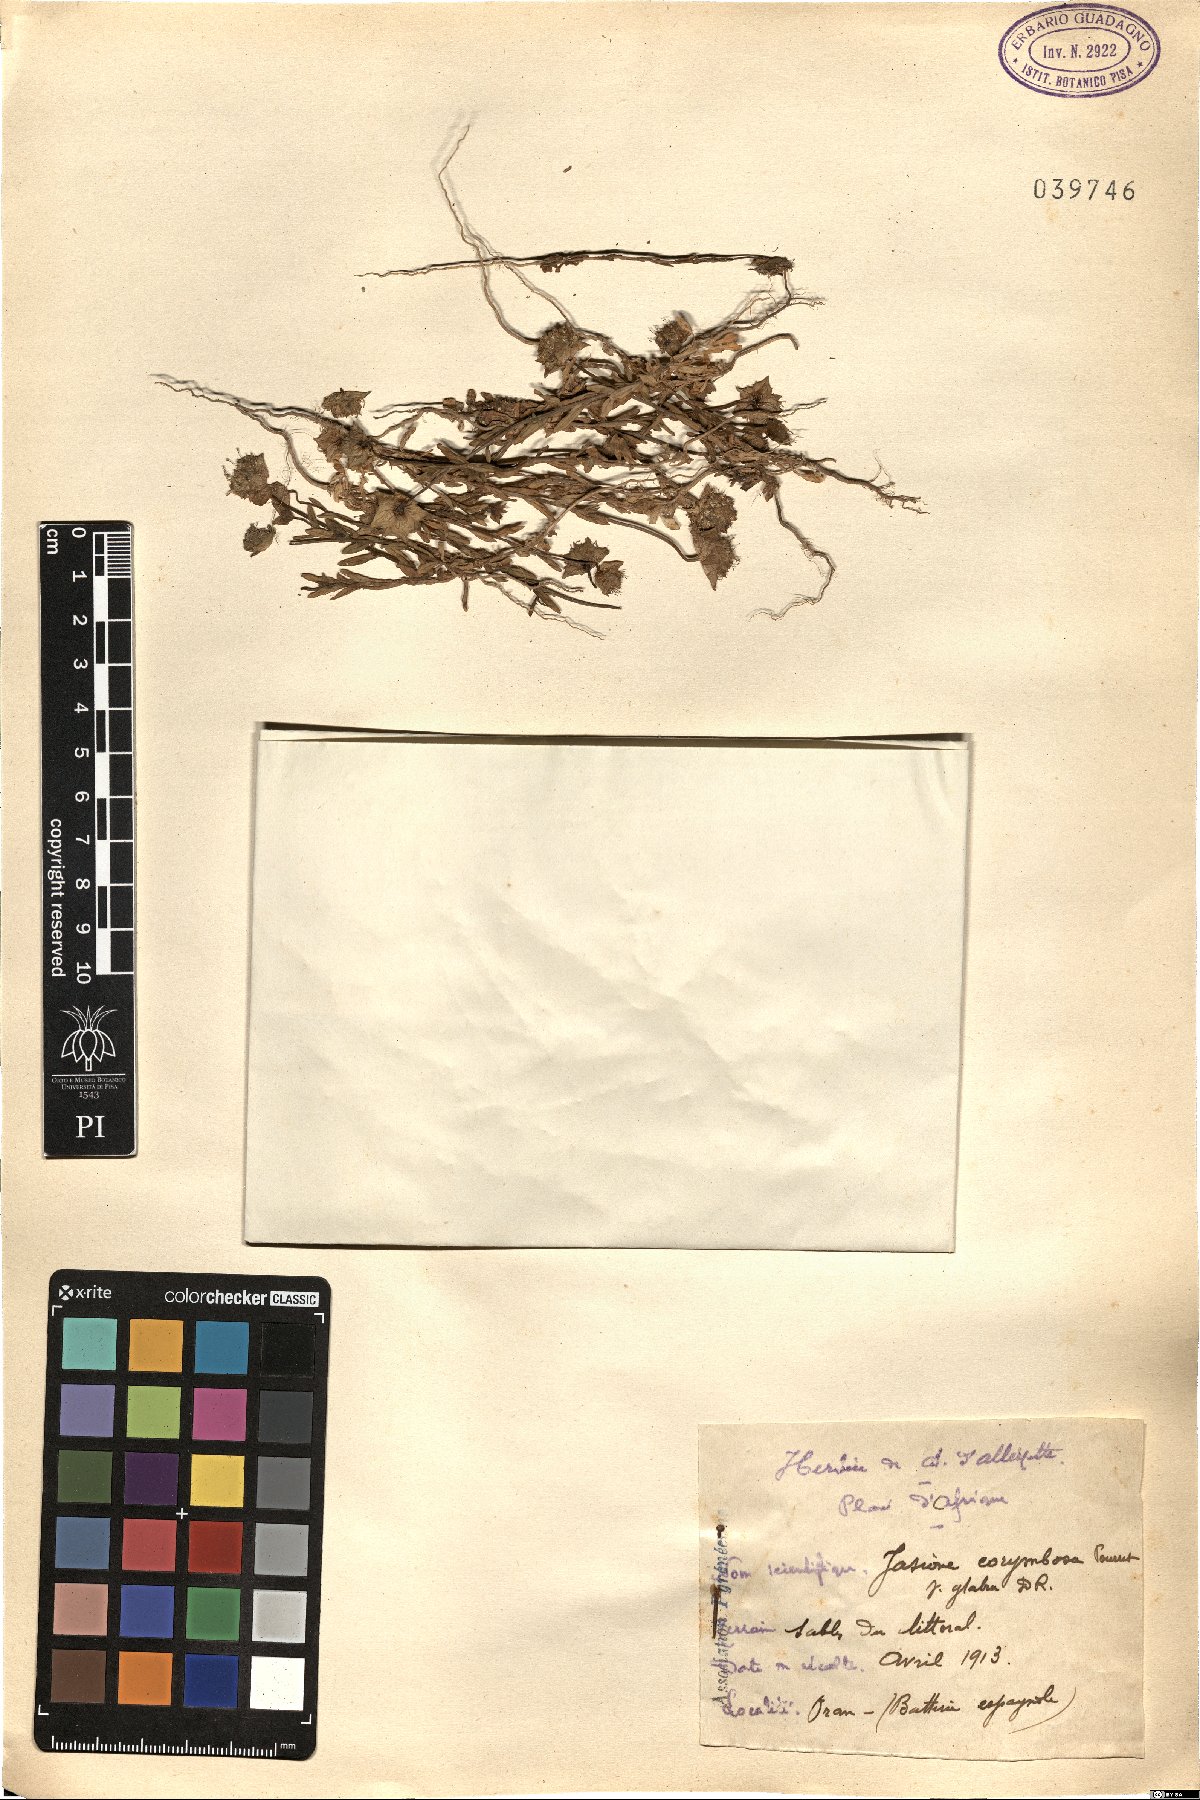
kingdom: Plantae
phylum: Tracheophyta
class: Magnoliopsida
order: Asterales
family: Campanulaceae
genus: Jasione
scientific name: Jasione corymbosa
